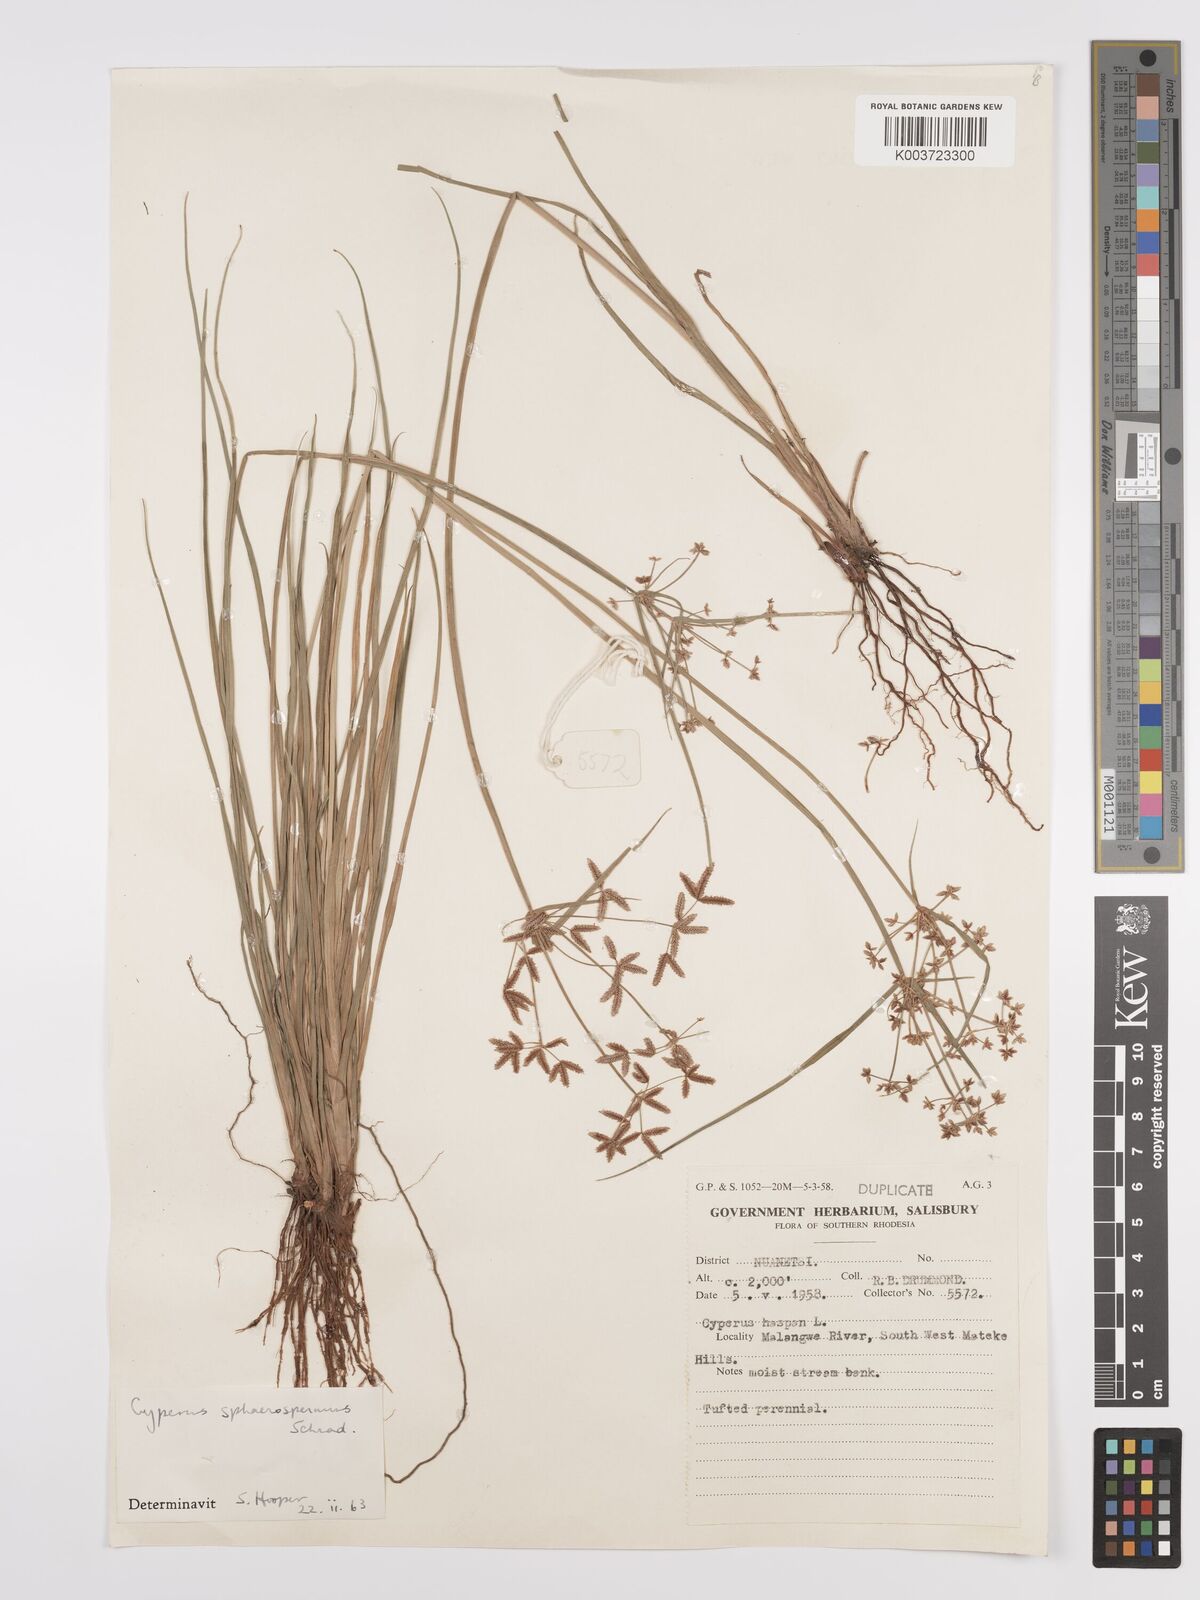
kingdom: Plantae
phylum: Tracheophyta
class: Liliopsida
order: Poales
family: Cyperaceae
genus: Cyperus
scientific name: Cyperus denudatus
